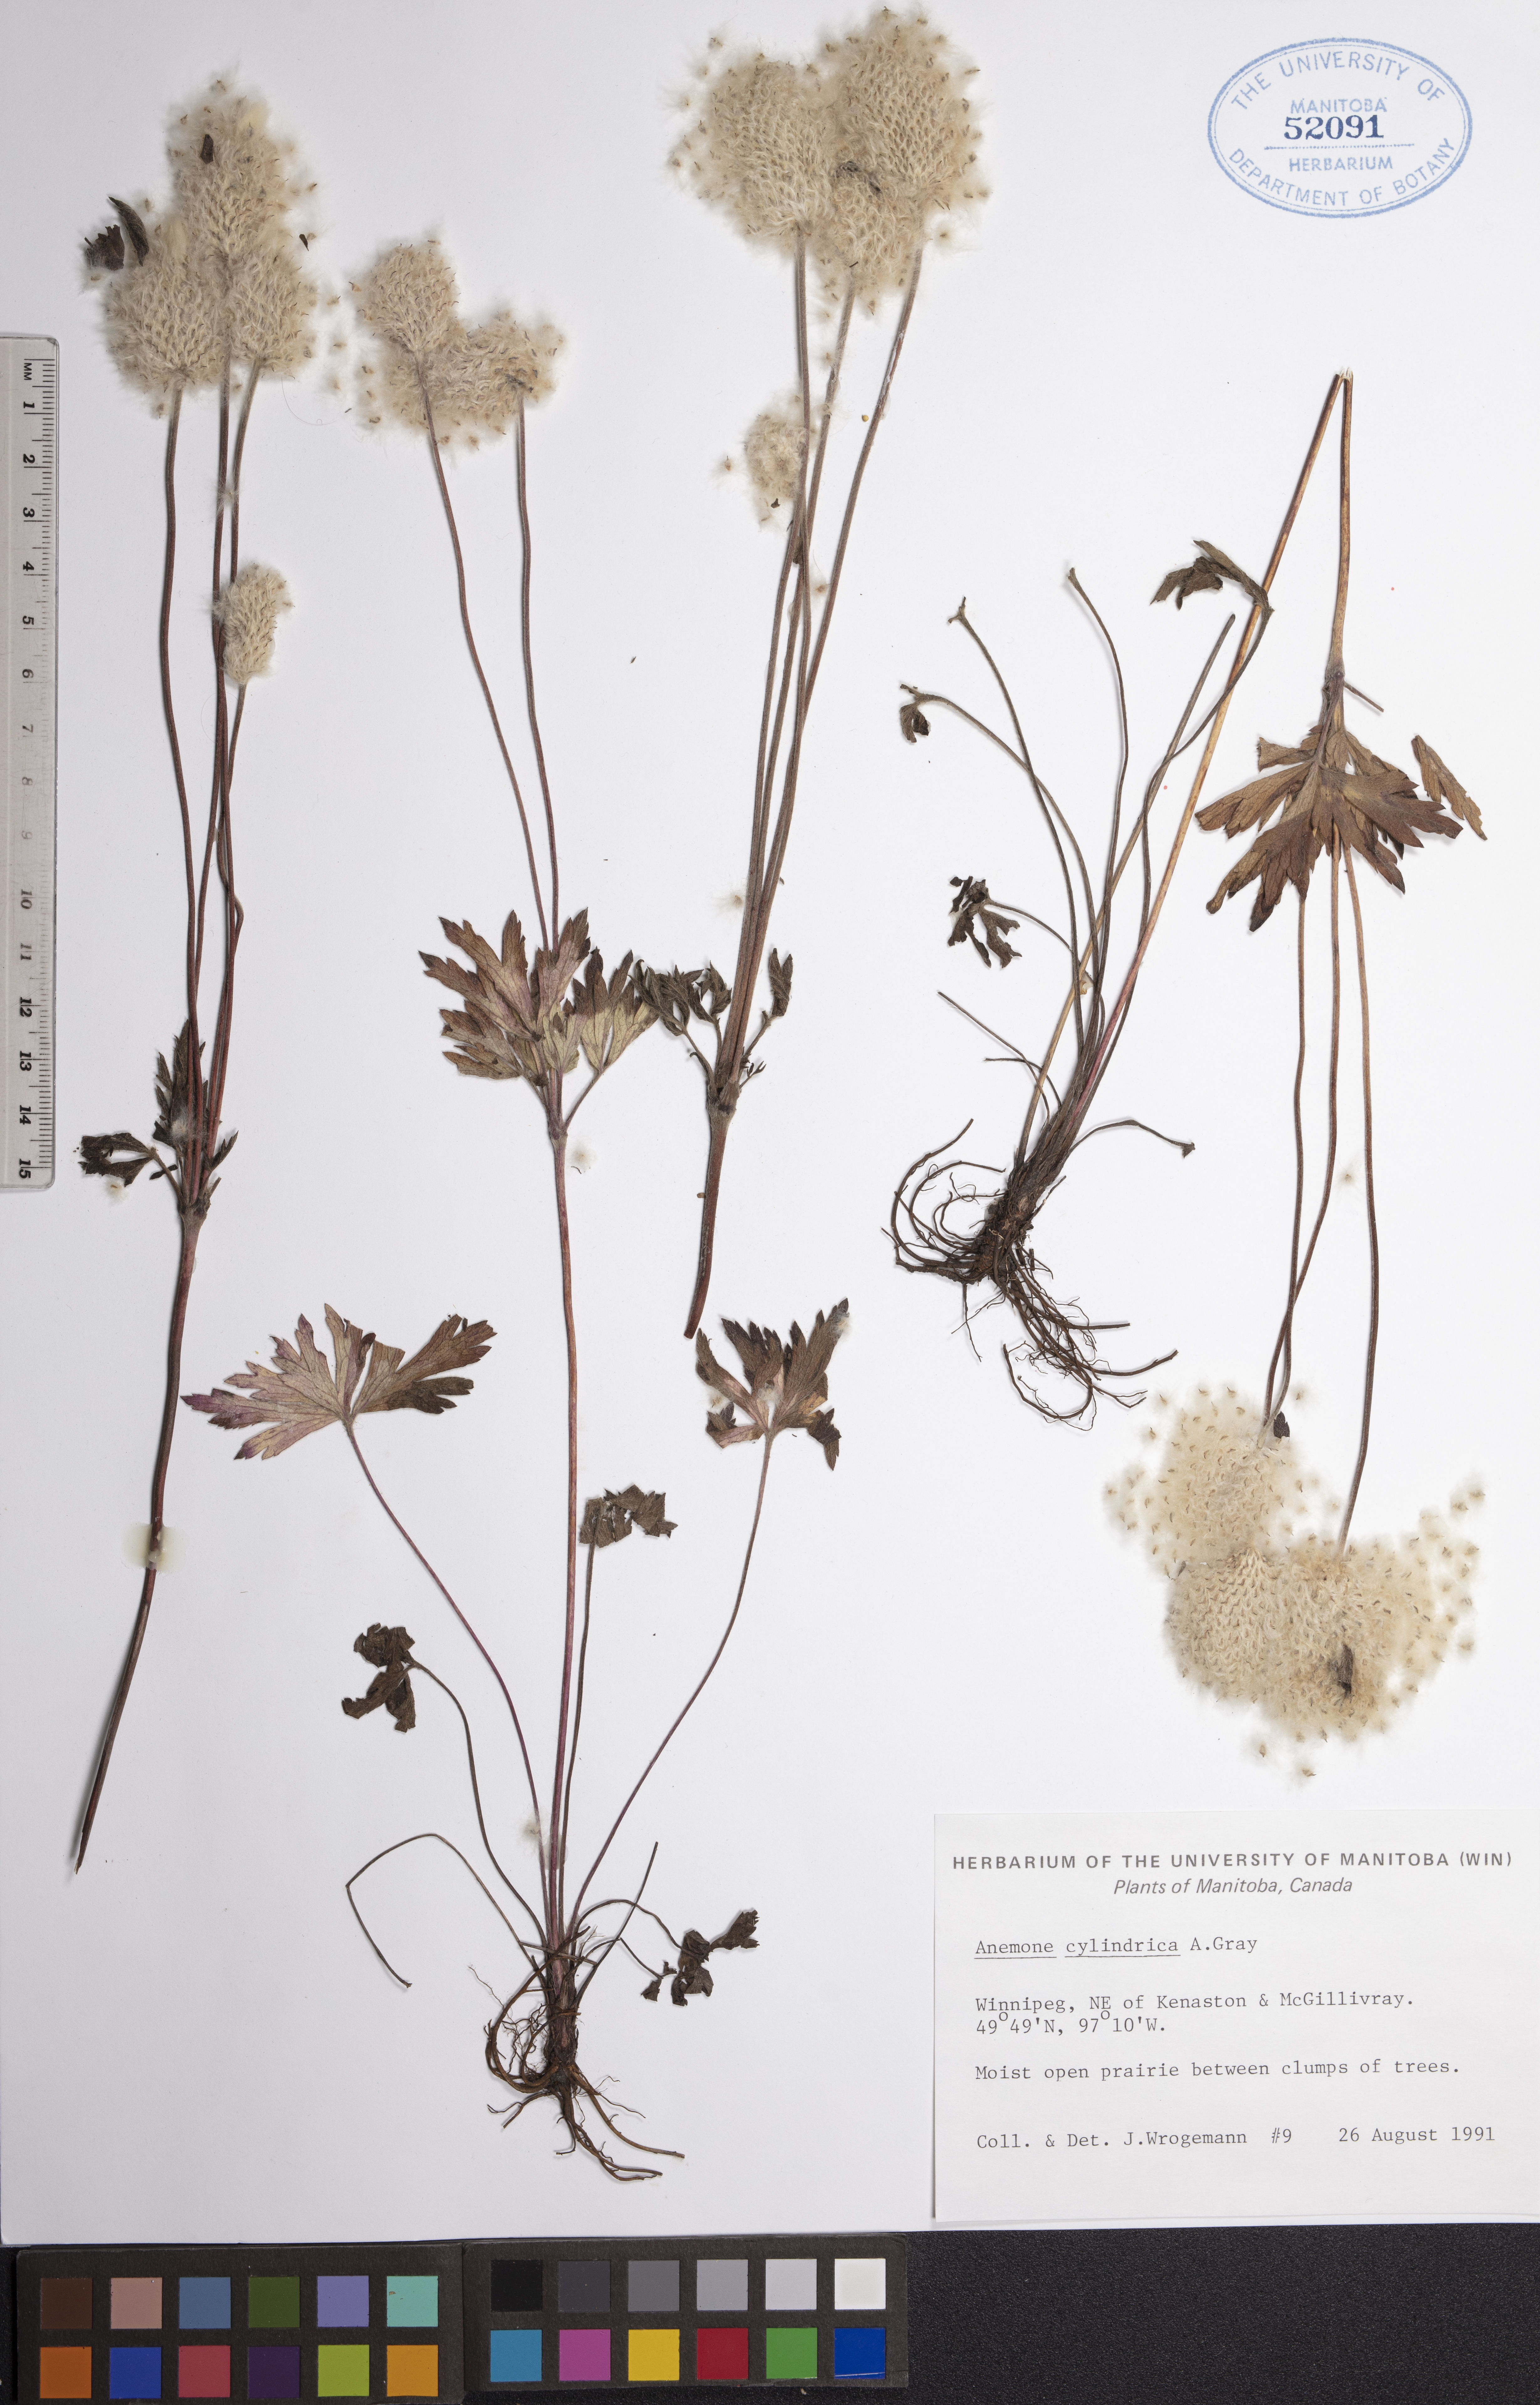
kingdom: Plantae
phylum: Tracheophyta
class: Magnoliopsida
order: Ranunculales
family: Ranunculaceae
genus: Anemone
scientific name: Anemone cylindrica
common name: Candle anemone
